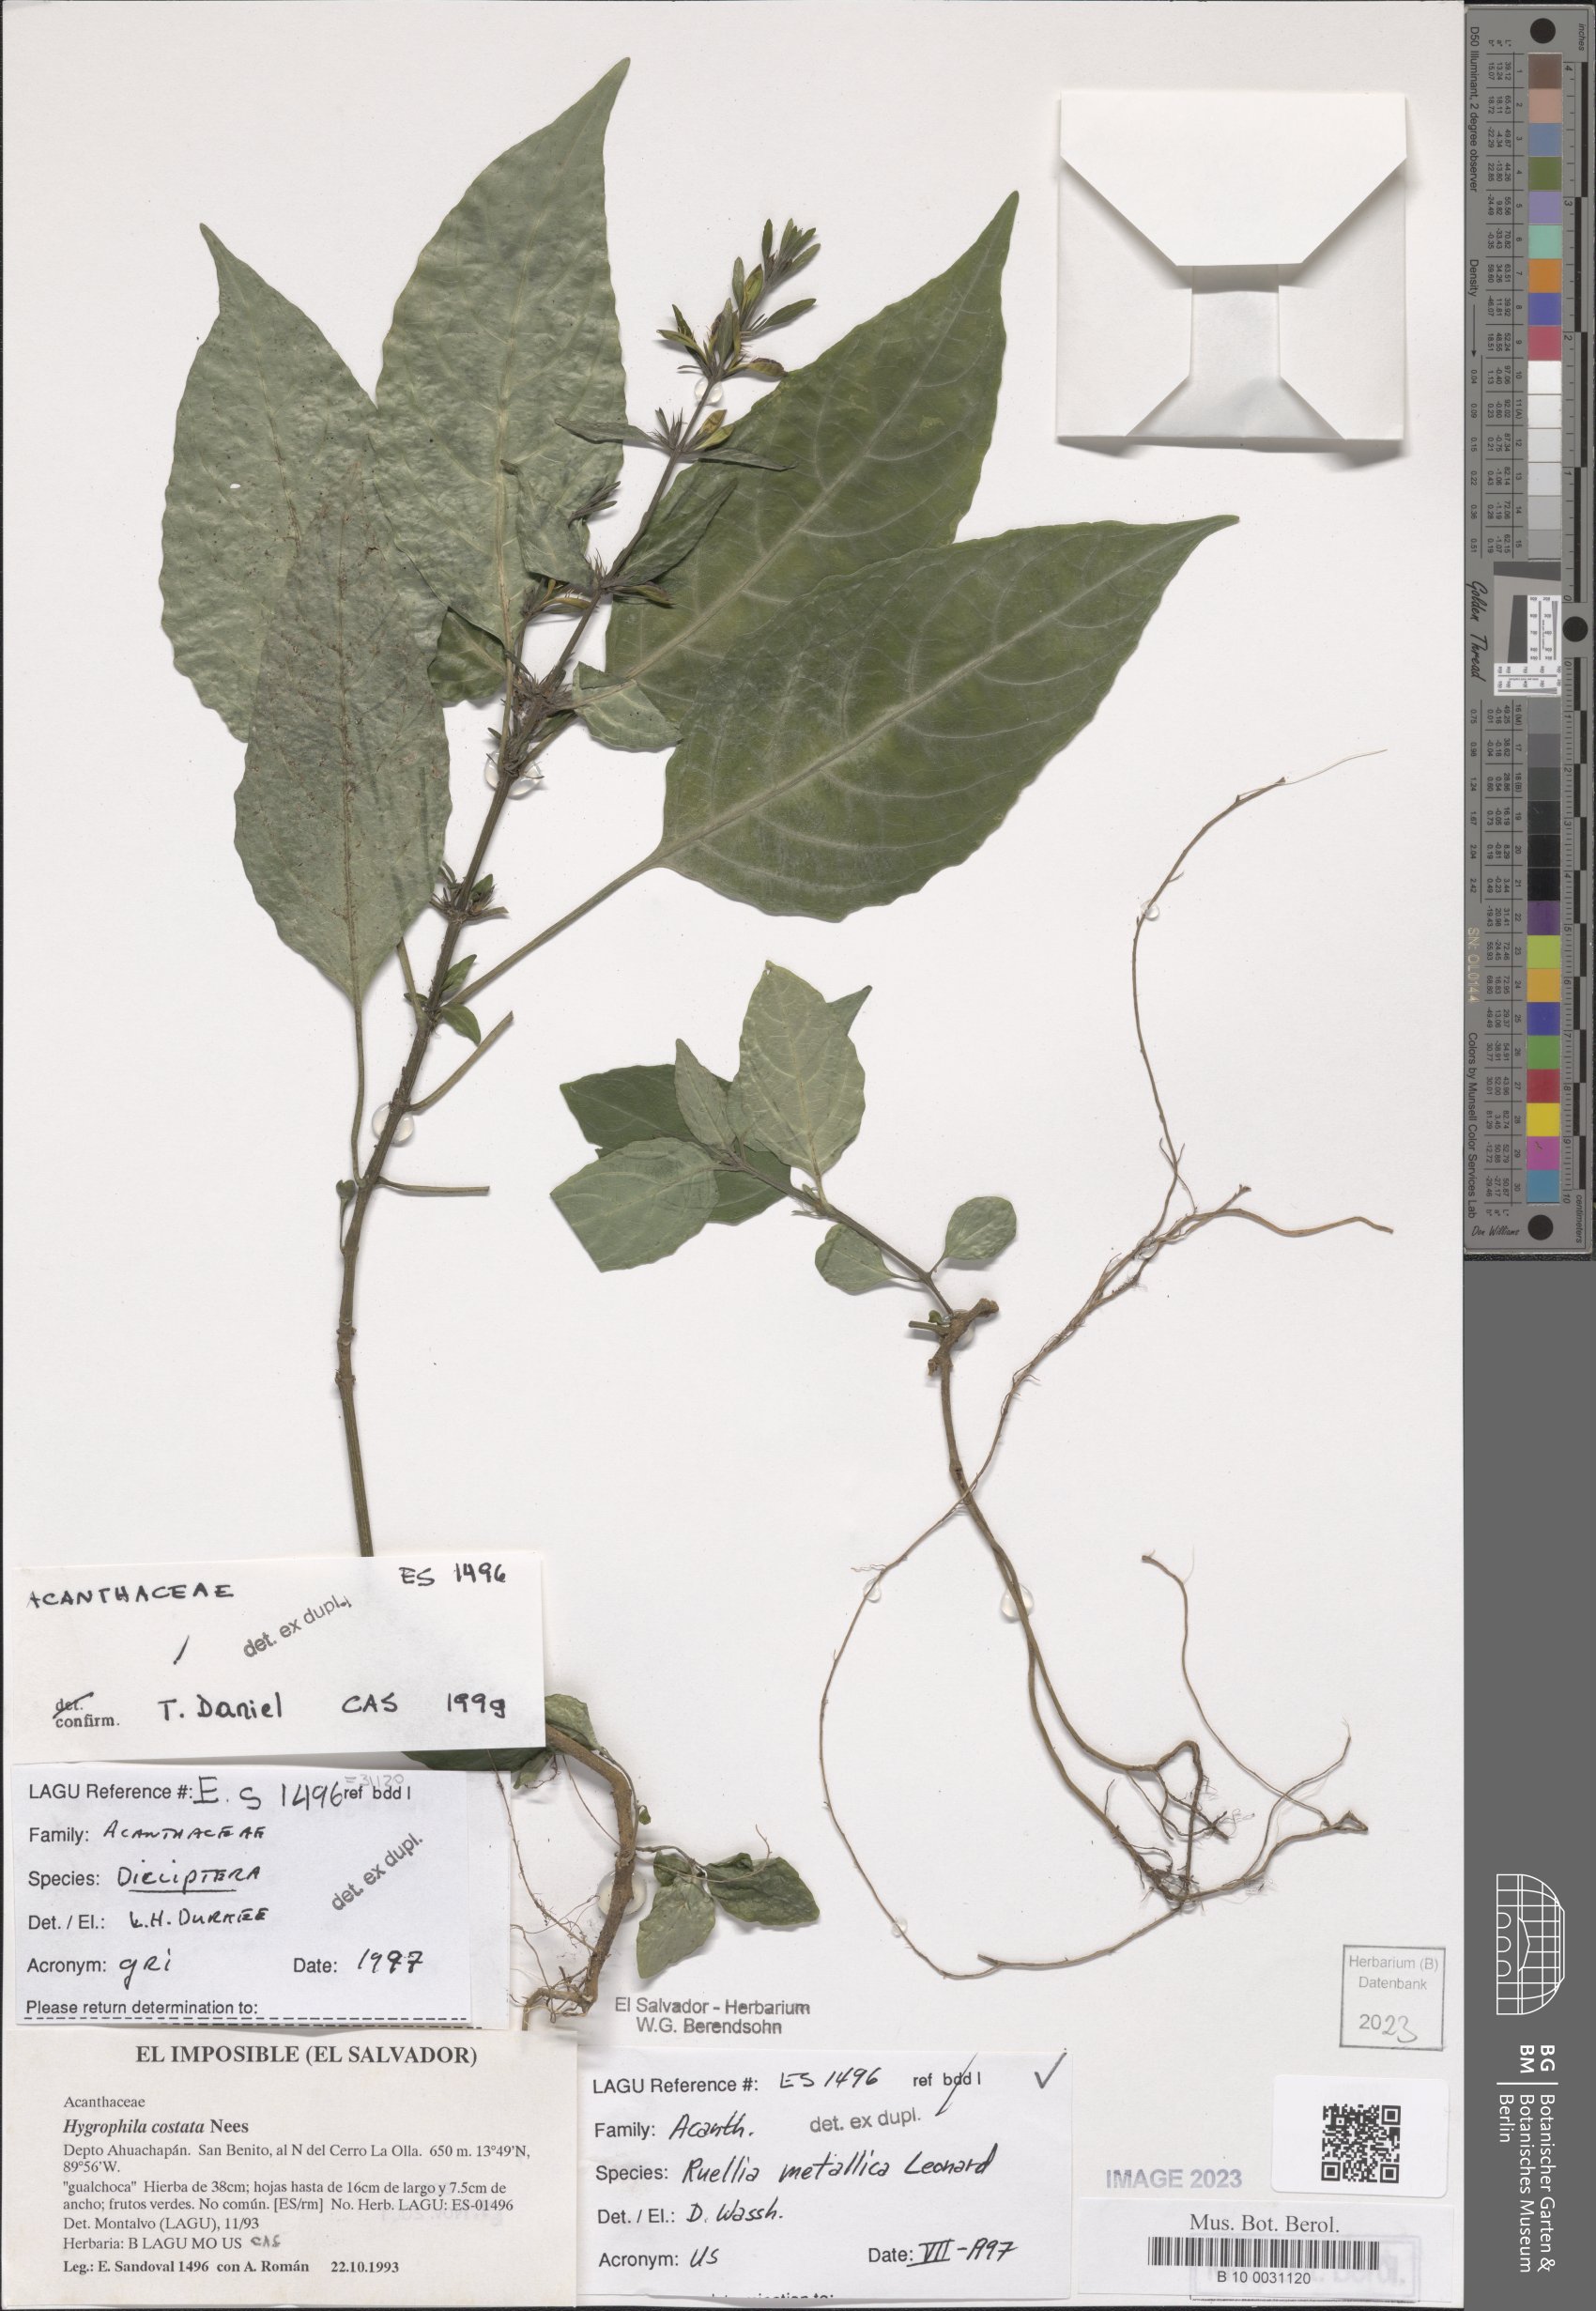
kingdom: Plantae
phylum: Tracheophyta
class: Magnoliopsida
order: Lamiales
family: Acanthaceae
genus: Ruellia
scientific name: Ruellia metallica
